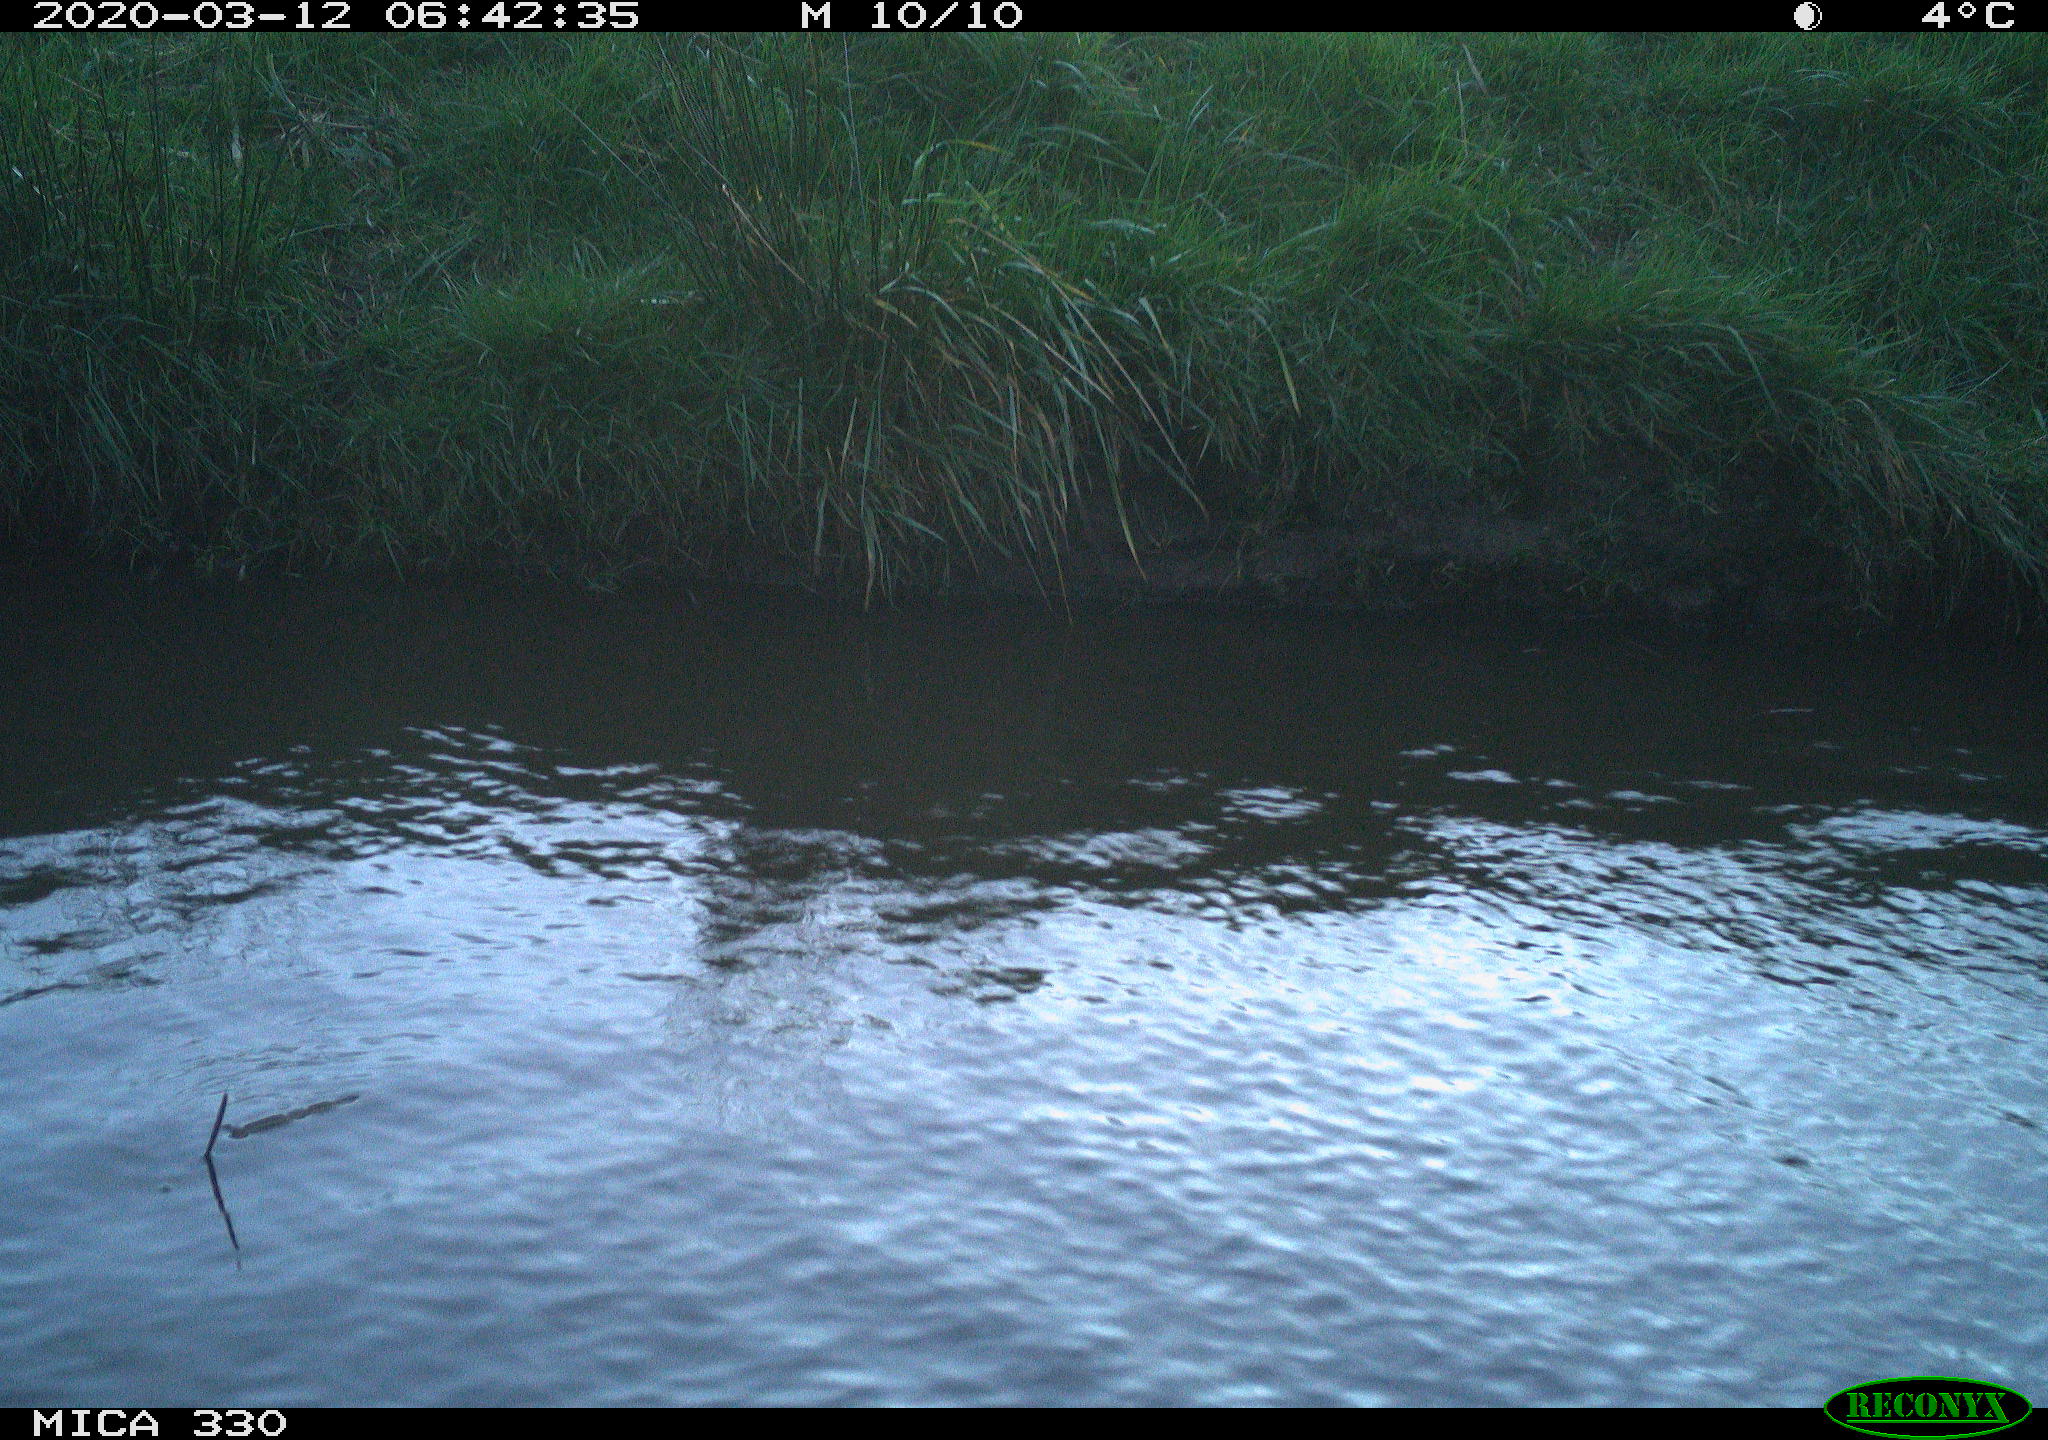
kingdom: Animalia
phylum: Chordata
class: Aves
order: Anseriformes
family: Anatidae
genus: Anas
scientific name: Anas platyrhynchos
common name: Mallard
